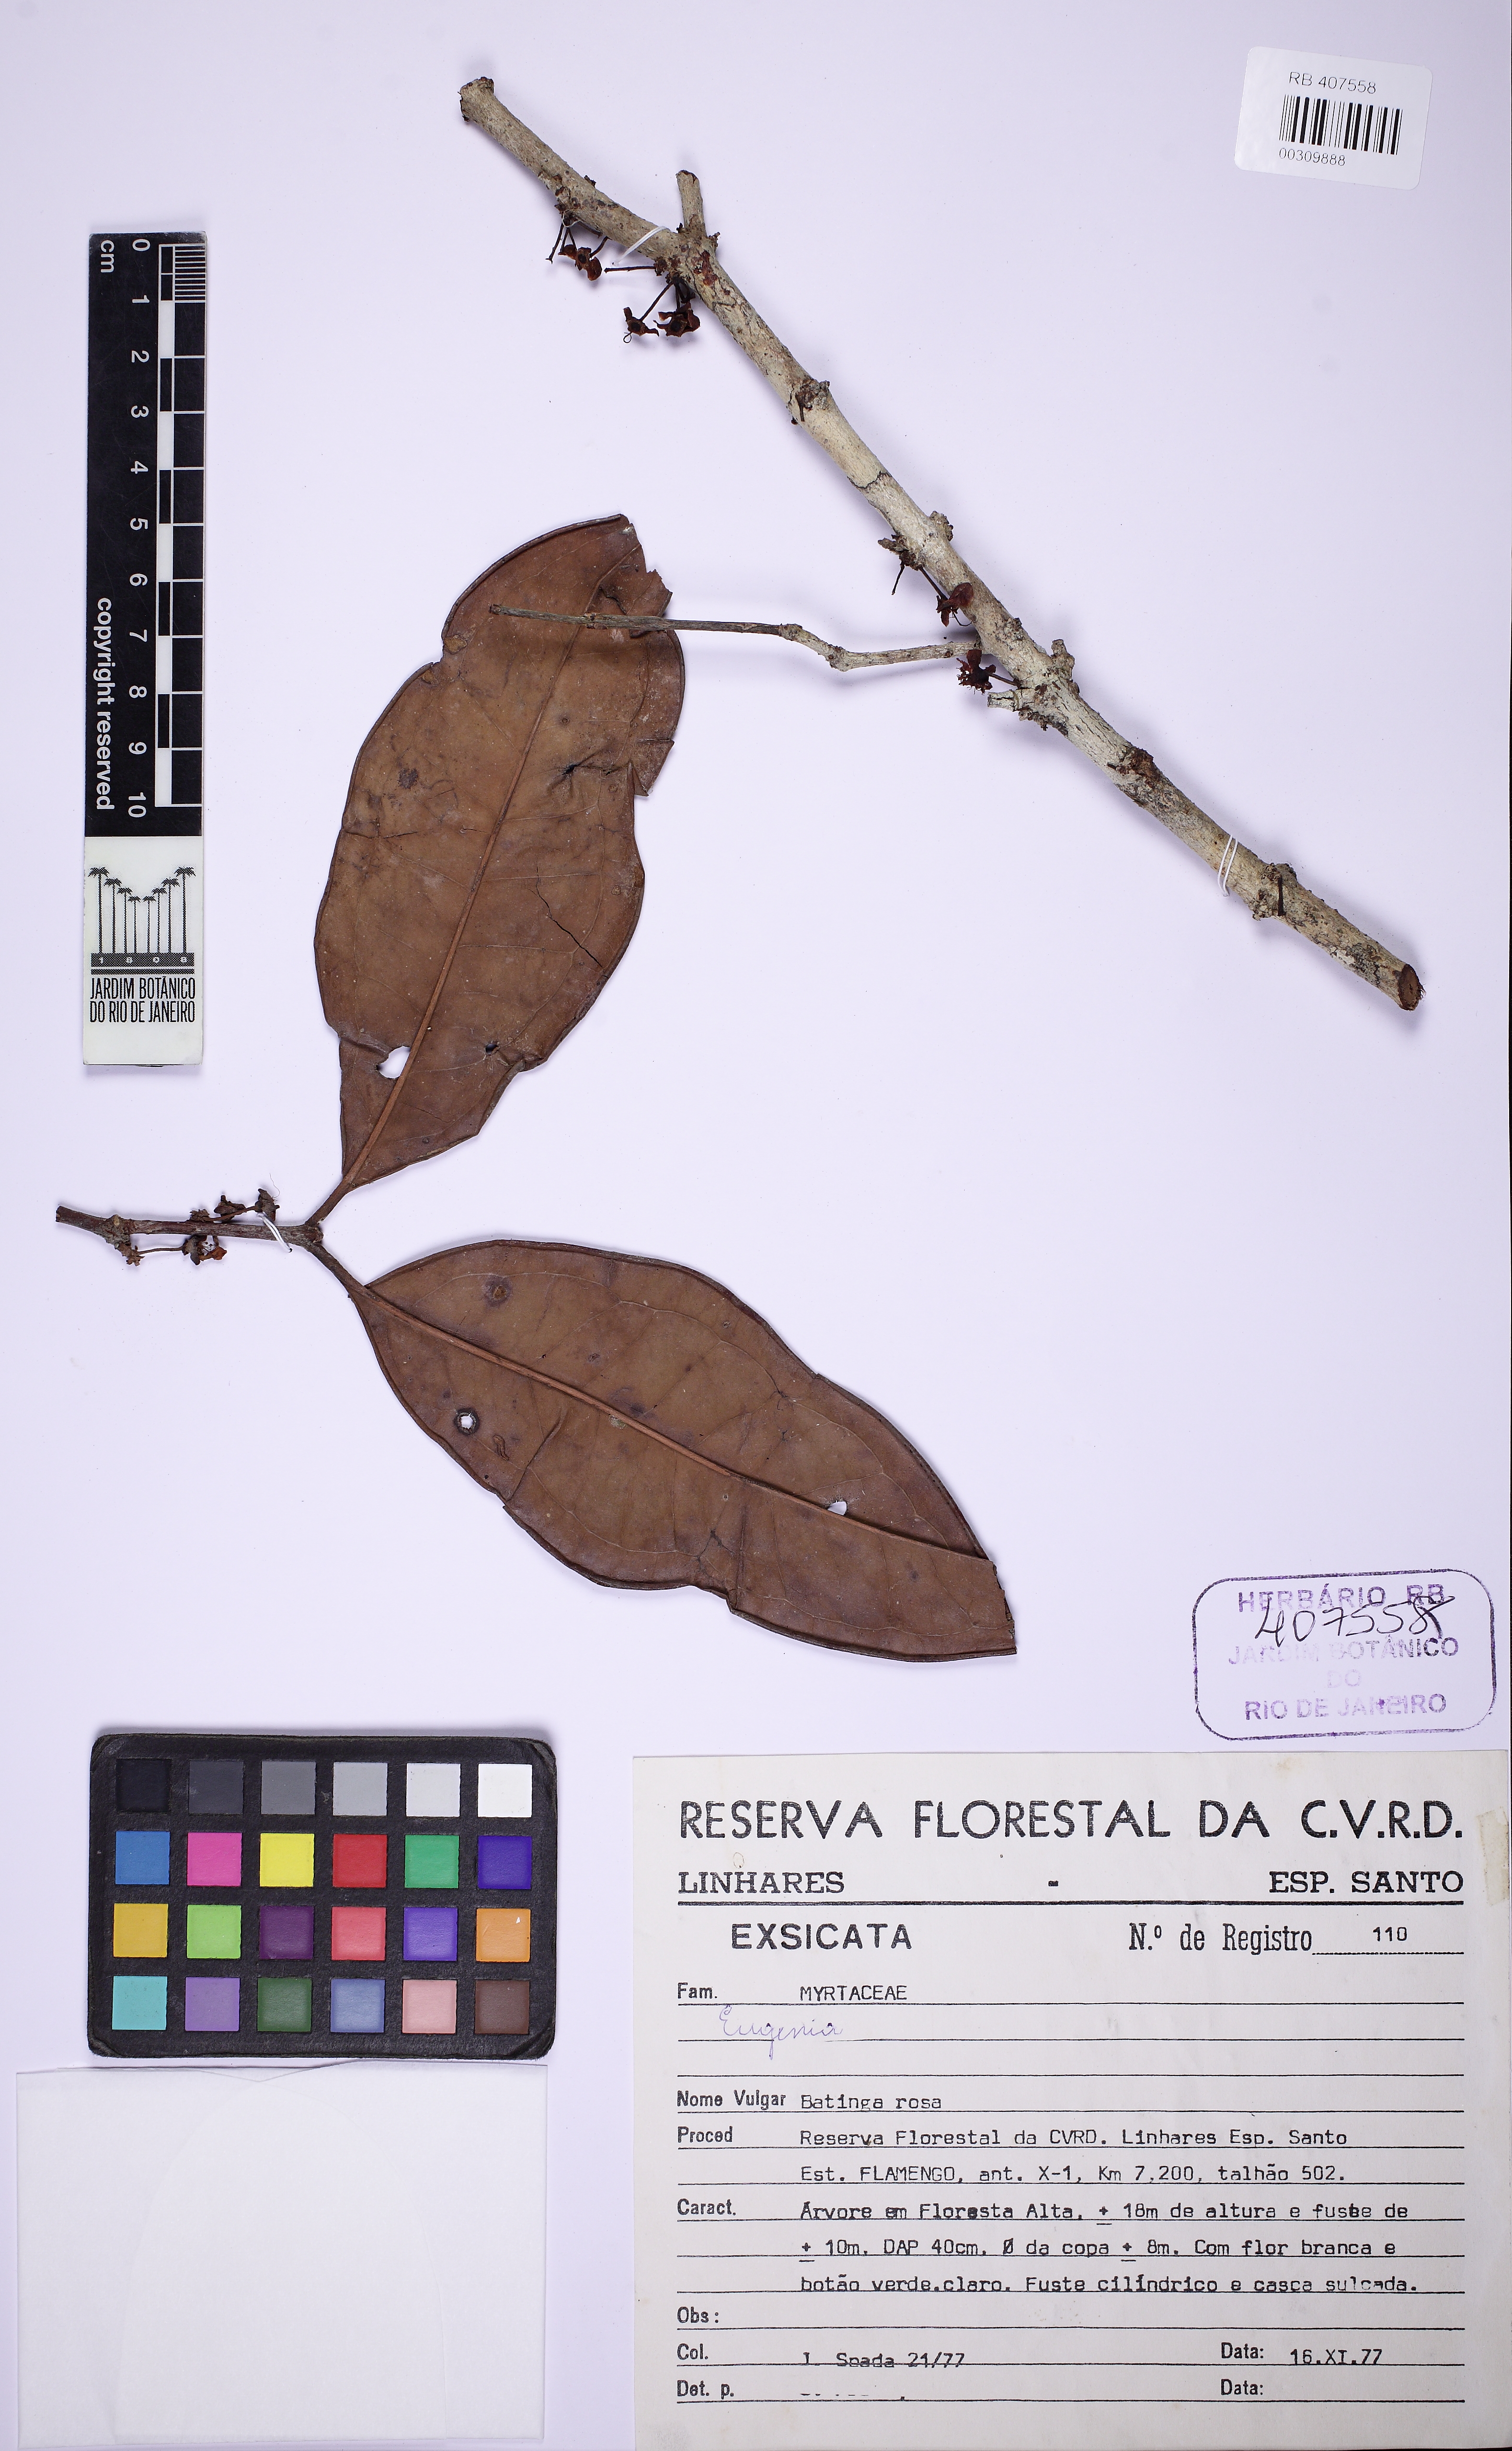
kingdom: Plantae
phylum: Tracheophyta
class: Magnoliopsida
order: Myrtales
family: Myrtaceae
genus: Eugenia
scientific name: Eugenia fusca
